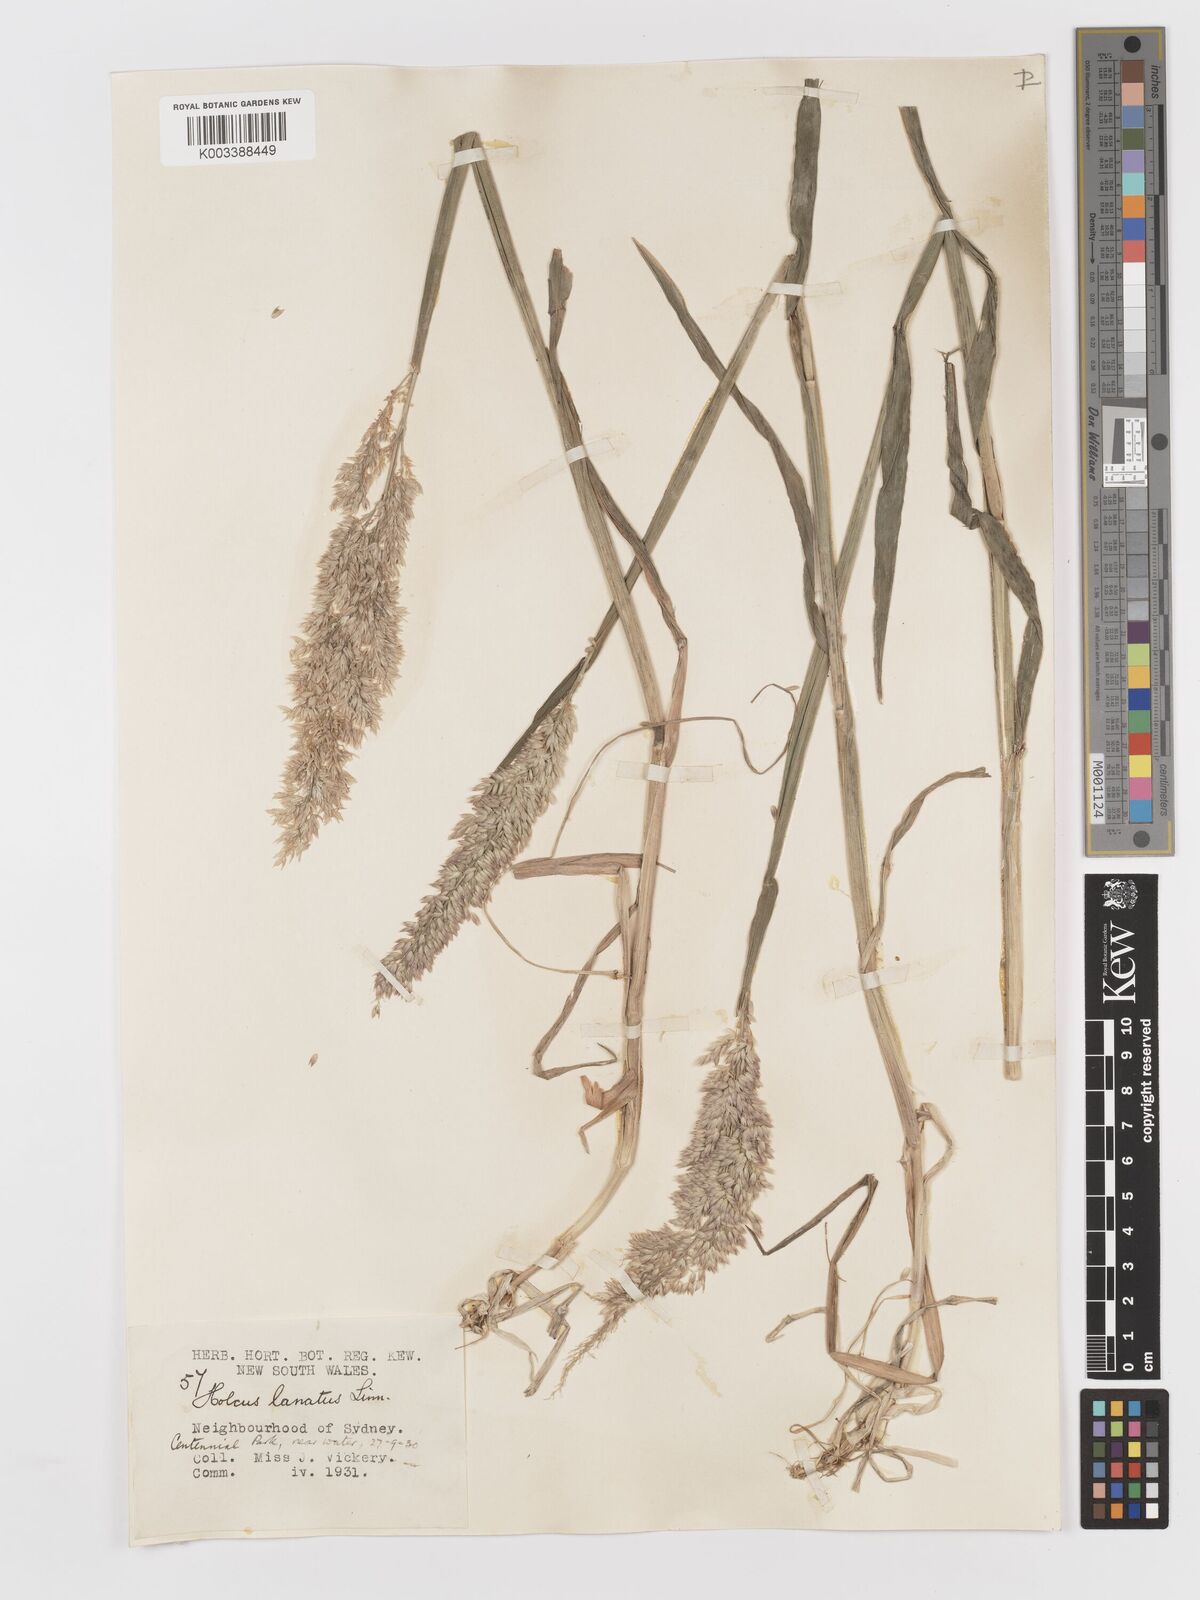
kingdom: Plantae
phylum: Tracheophyta
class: Liliopsida
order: Poales
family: Poaceae
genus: Holcus
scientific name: Holcus lanatus
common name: Yorkshire-fog
